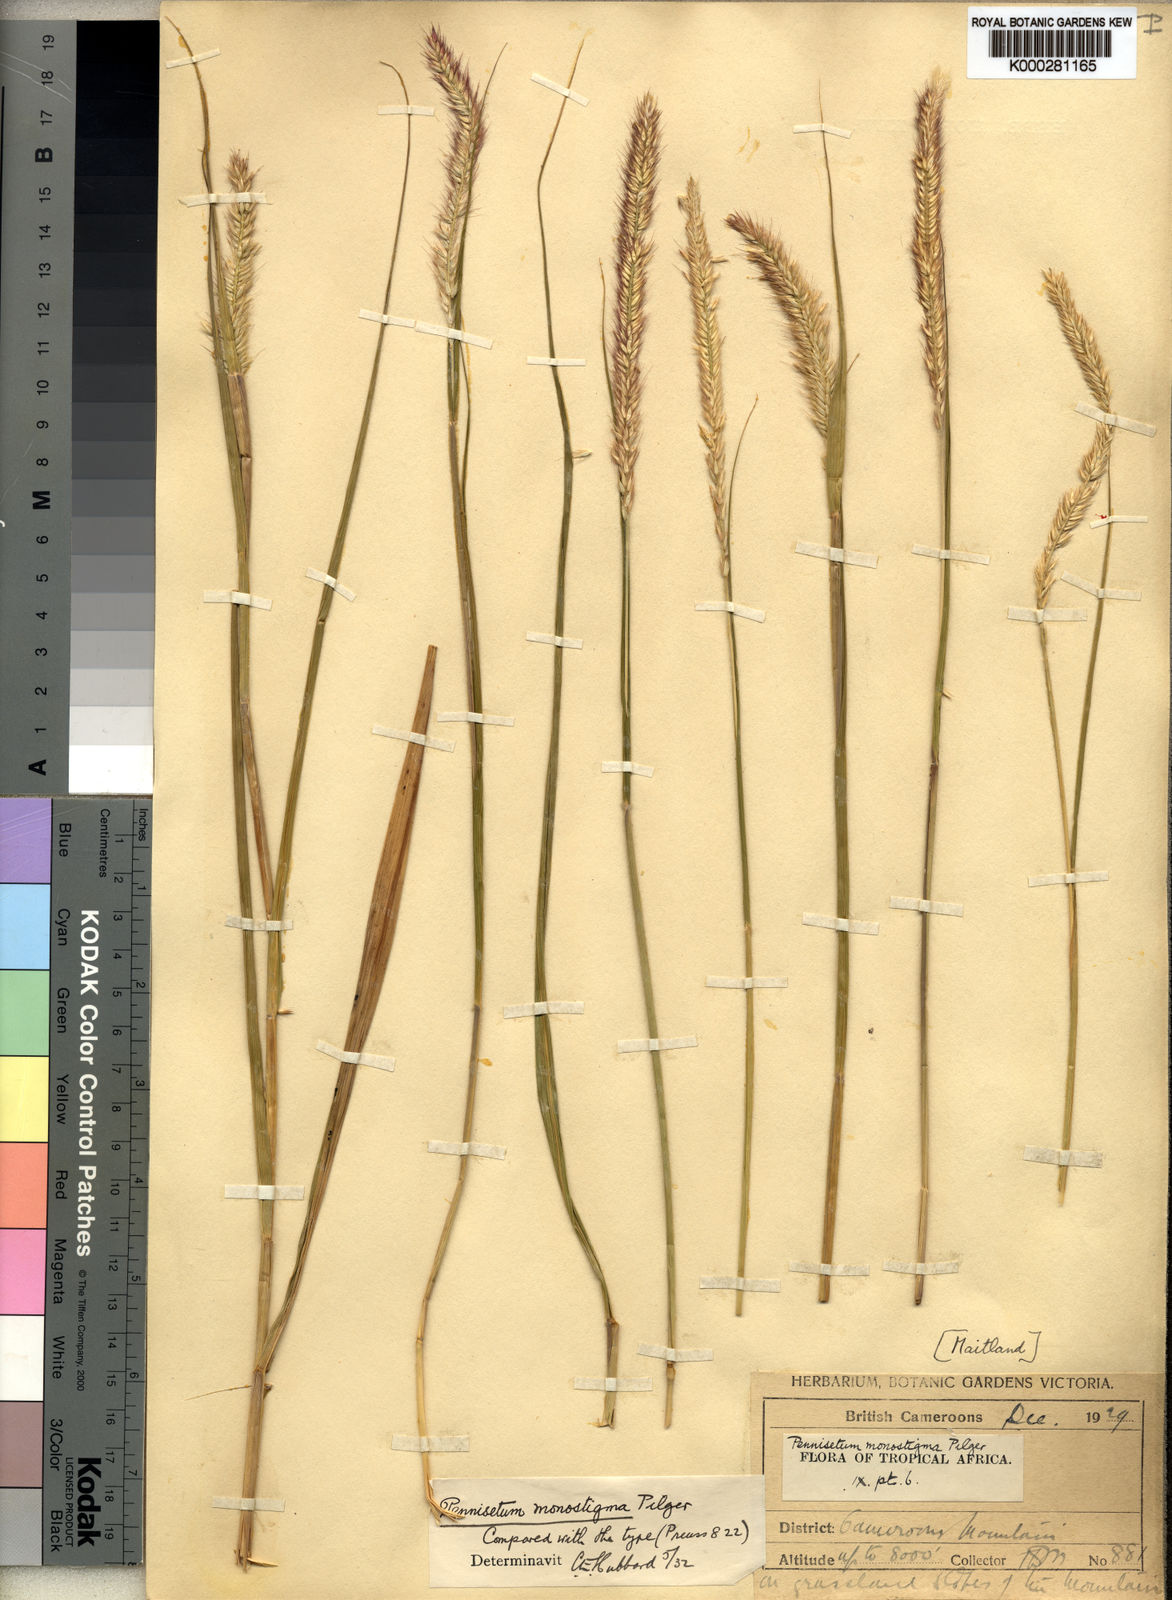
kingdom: Plantae
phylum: Tracheophyta
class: Liliopsida
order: Poales
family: Poaceae
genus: Cenchrus
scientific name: Cenchrus monostigma
